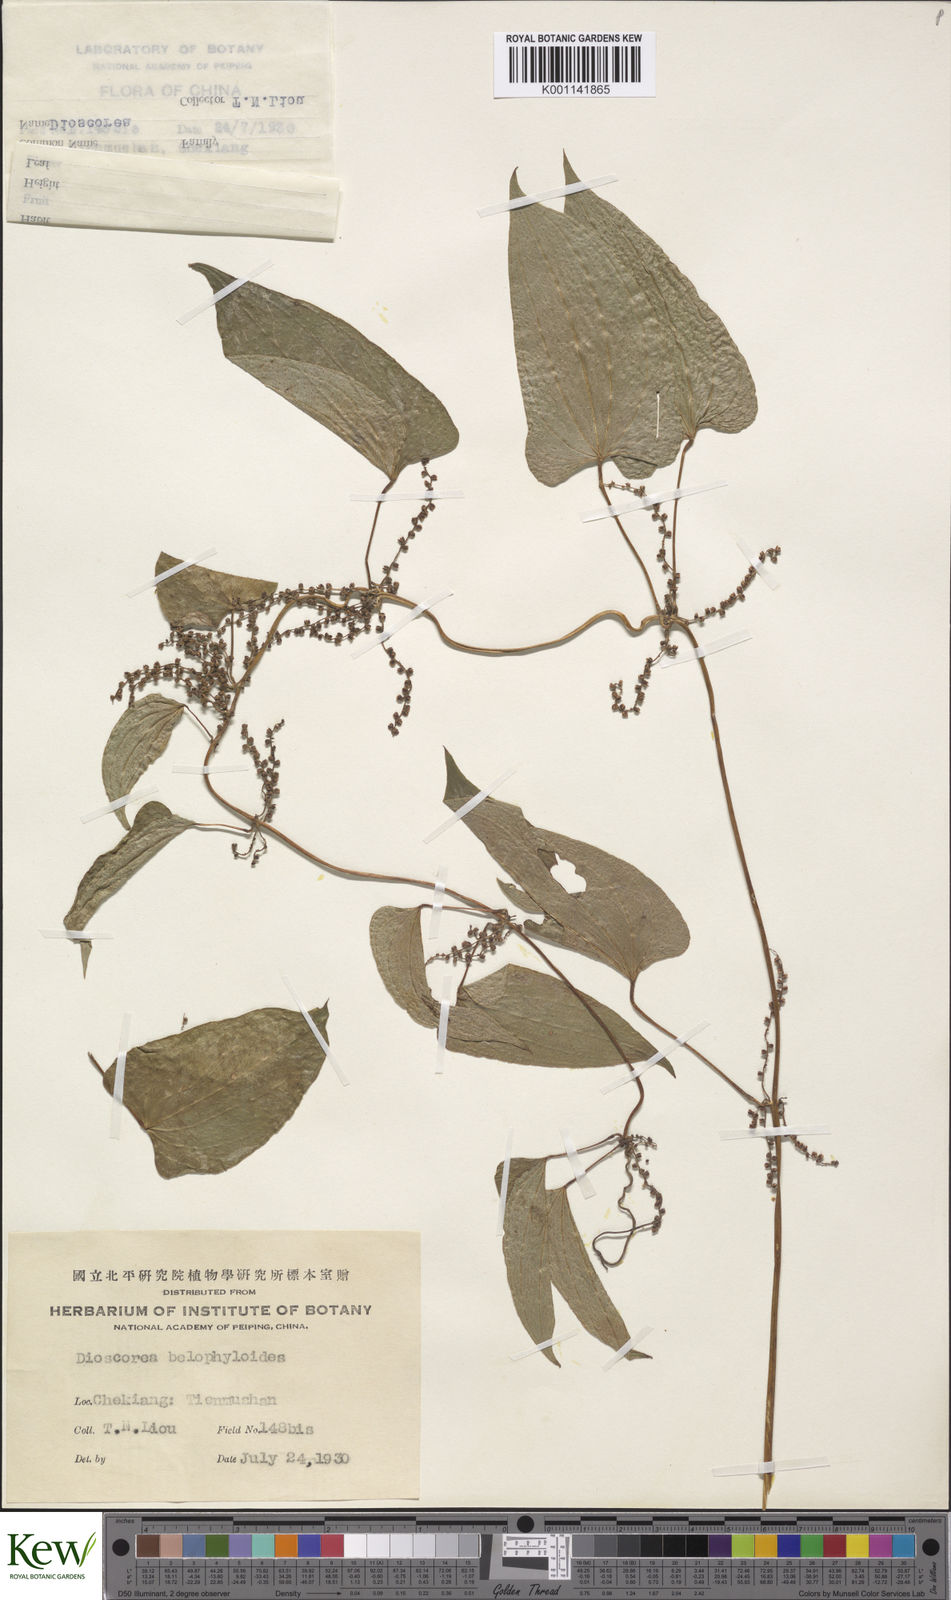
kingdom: Plantae
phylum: Tracheophyta
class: Liliopsida
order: Dioscoreales
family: Dioscoreaceae
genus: Dioscorea
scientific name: Dioscorea japonica
